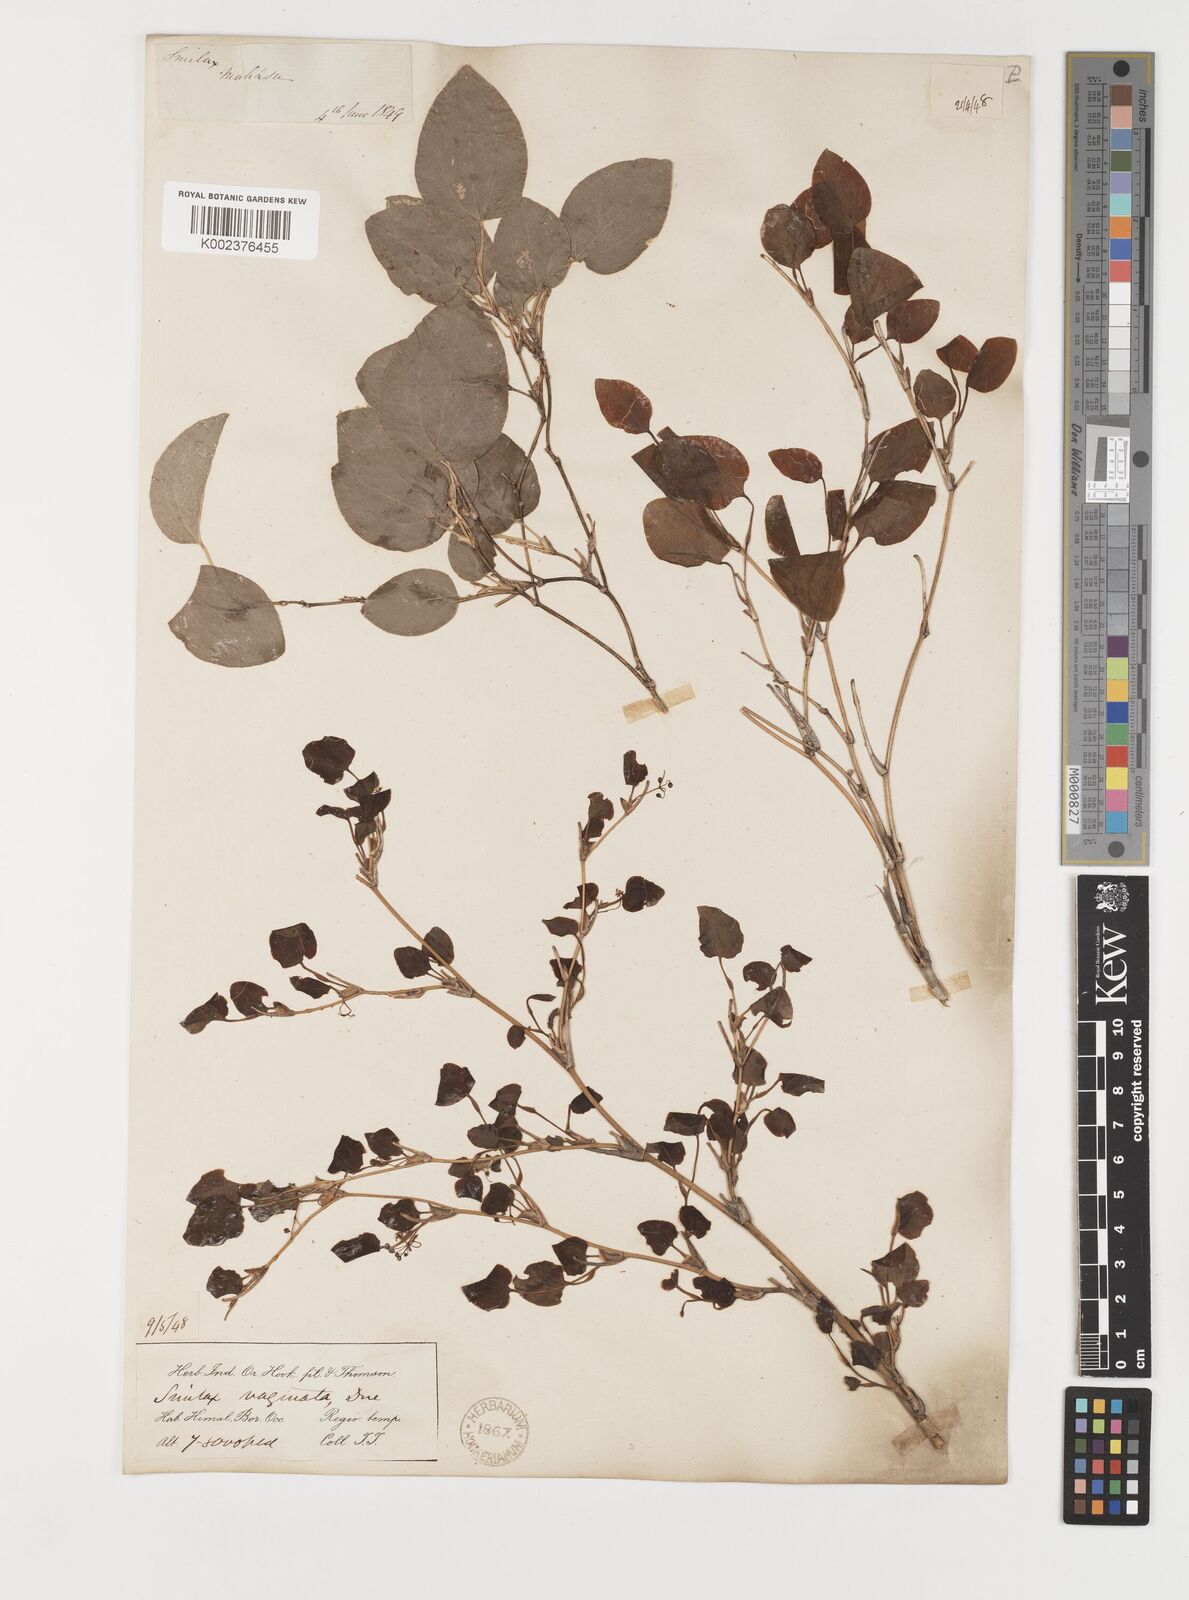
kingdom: Plantae
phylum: Tracheophyta
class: Liliopsida
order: Liliales
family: Smilacaceae
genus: Smilax
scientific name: Smilax vaginata
